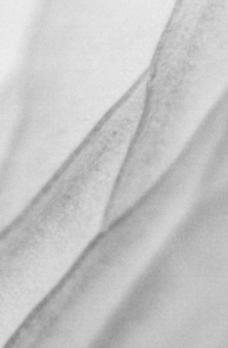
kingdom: Animalia
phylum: Chordata
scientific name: Chordata
